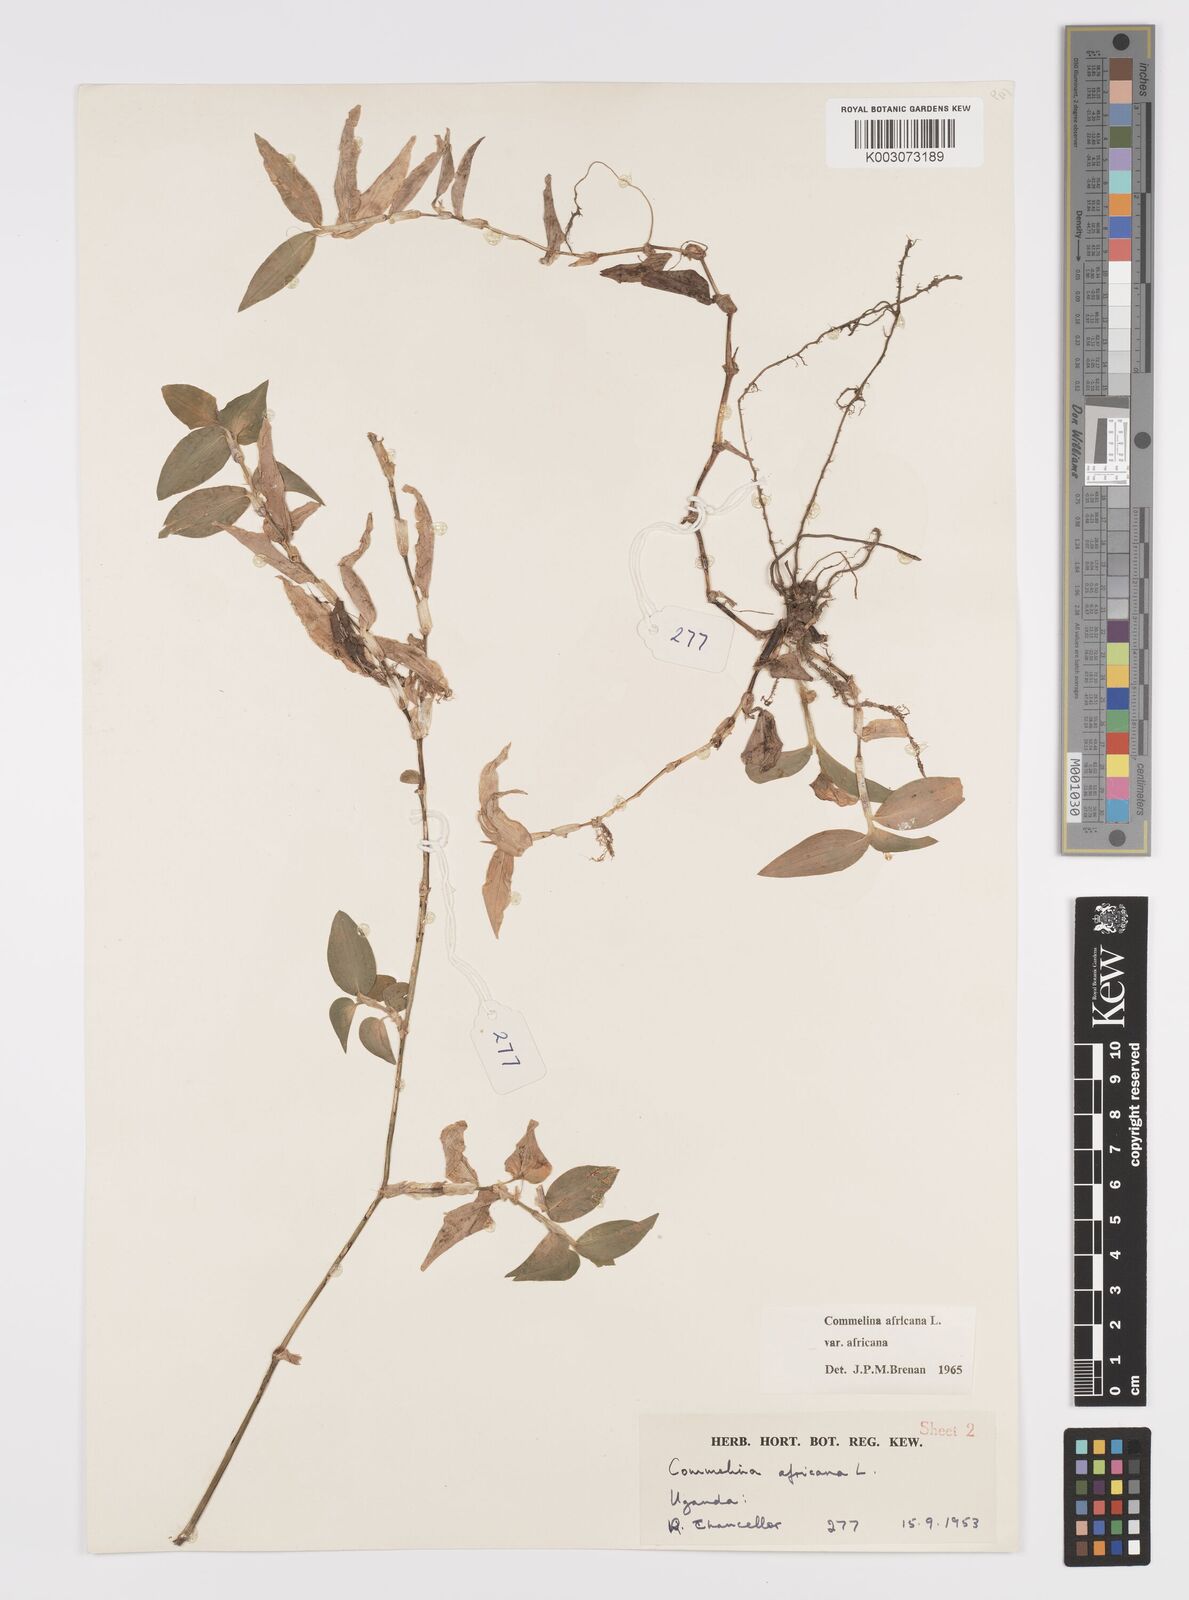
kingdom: Plantae
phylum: Tracheophyta
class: Liliopsida
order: Commelinales
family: Commelinaceae
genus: Commelina
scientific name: Commelina africana
